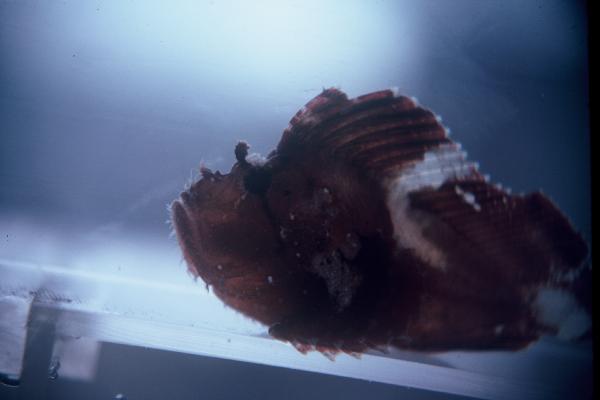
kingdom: Animalia
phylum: Chordata
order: Scorpaeniformes
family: Scorpaenidae
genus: Taenianotus
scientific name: Taenianotus triacanthus
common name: Leaf scorpionfish
